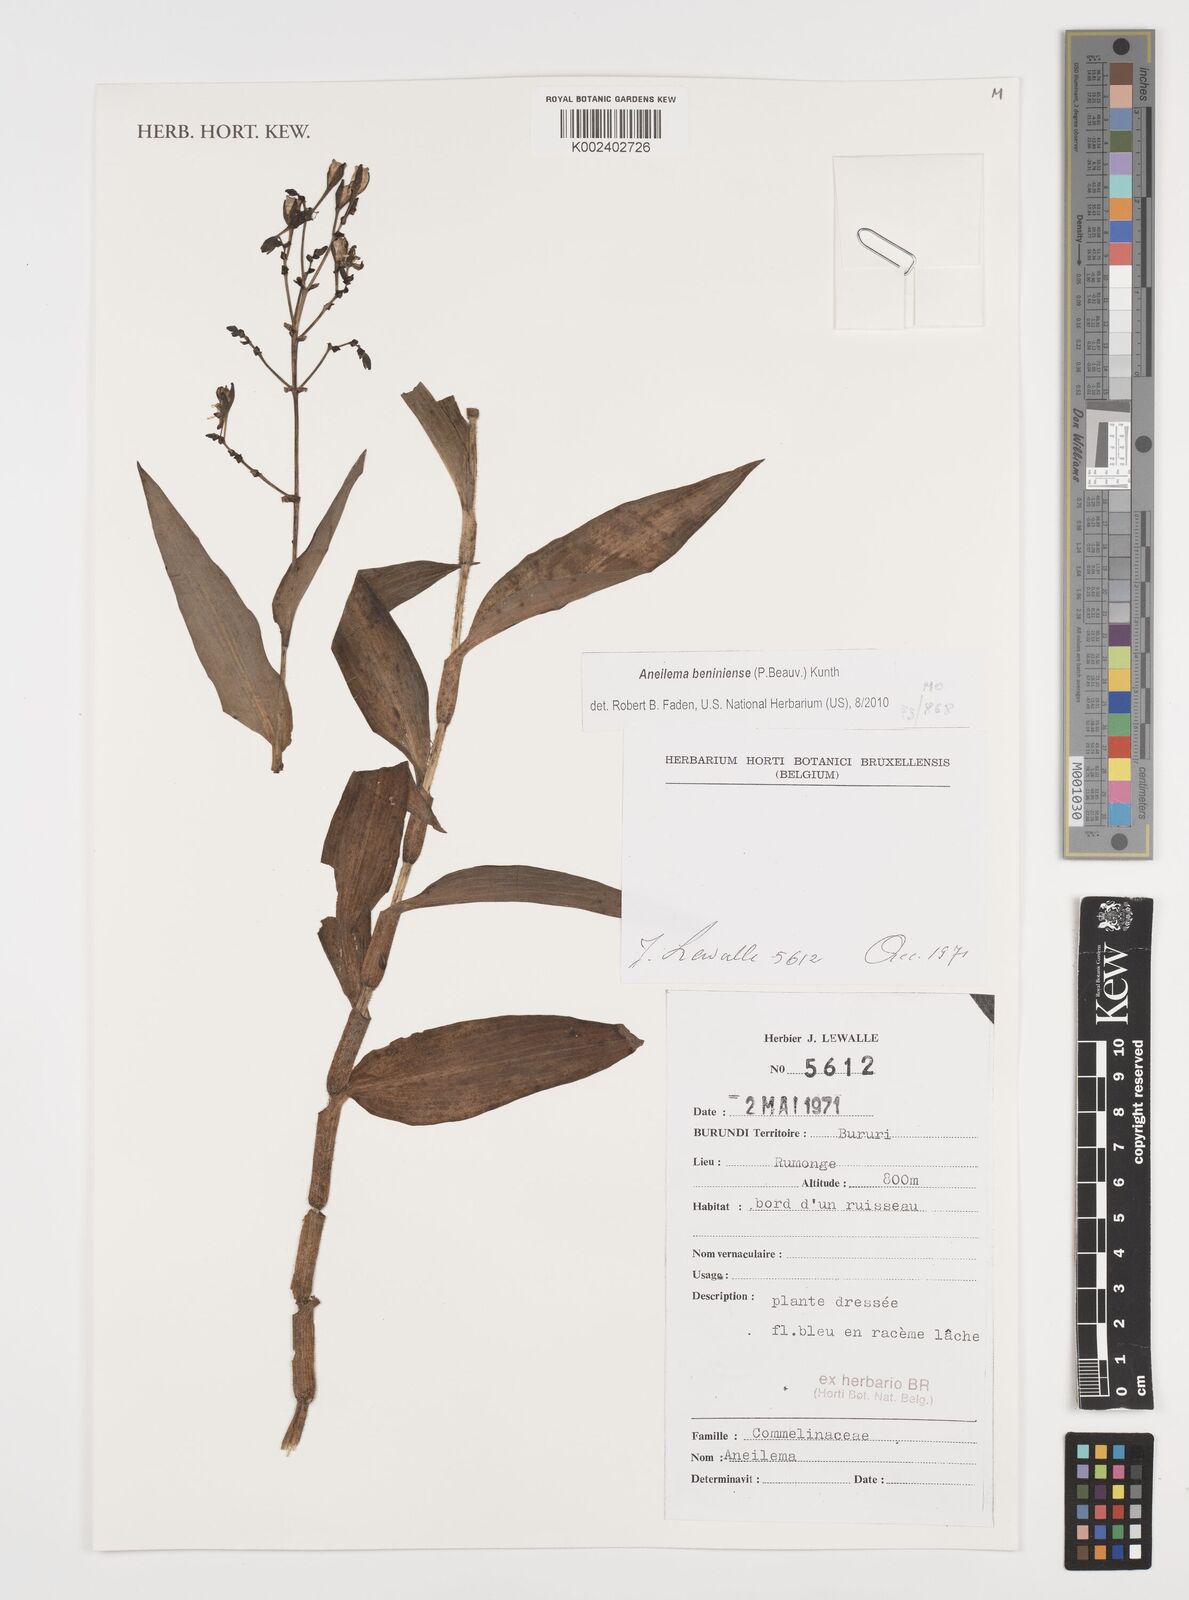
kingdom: Plantae
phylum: Tracheophyta
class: Liliopsida
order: Commelinales
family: Commelinaceae
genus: Aneilema
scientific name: Aneilema beniniense
